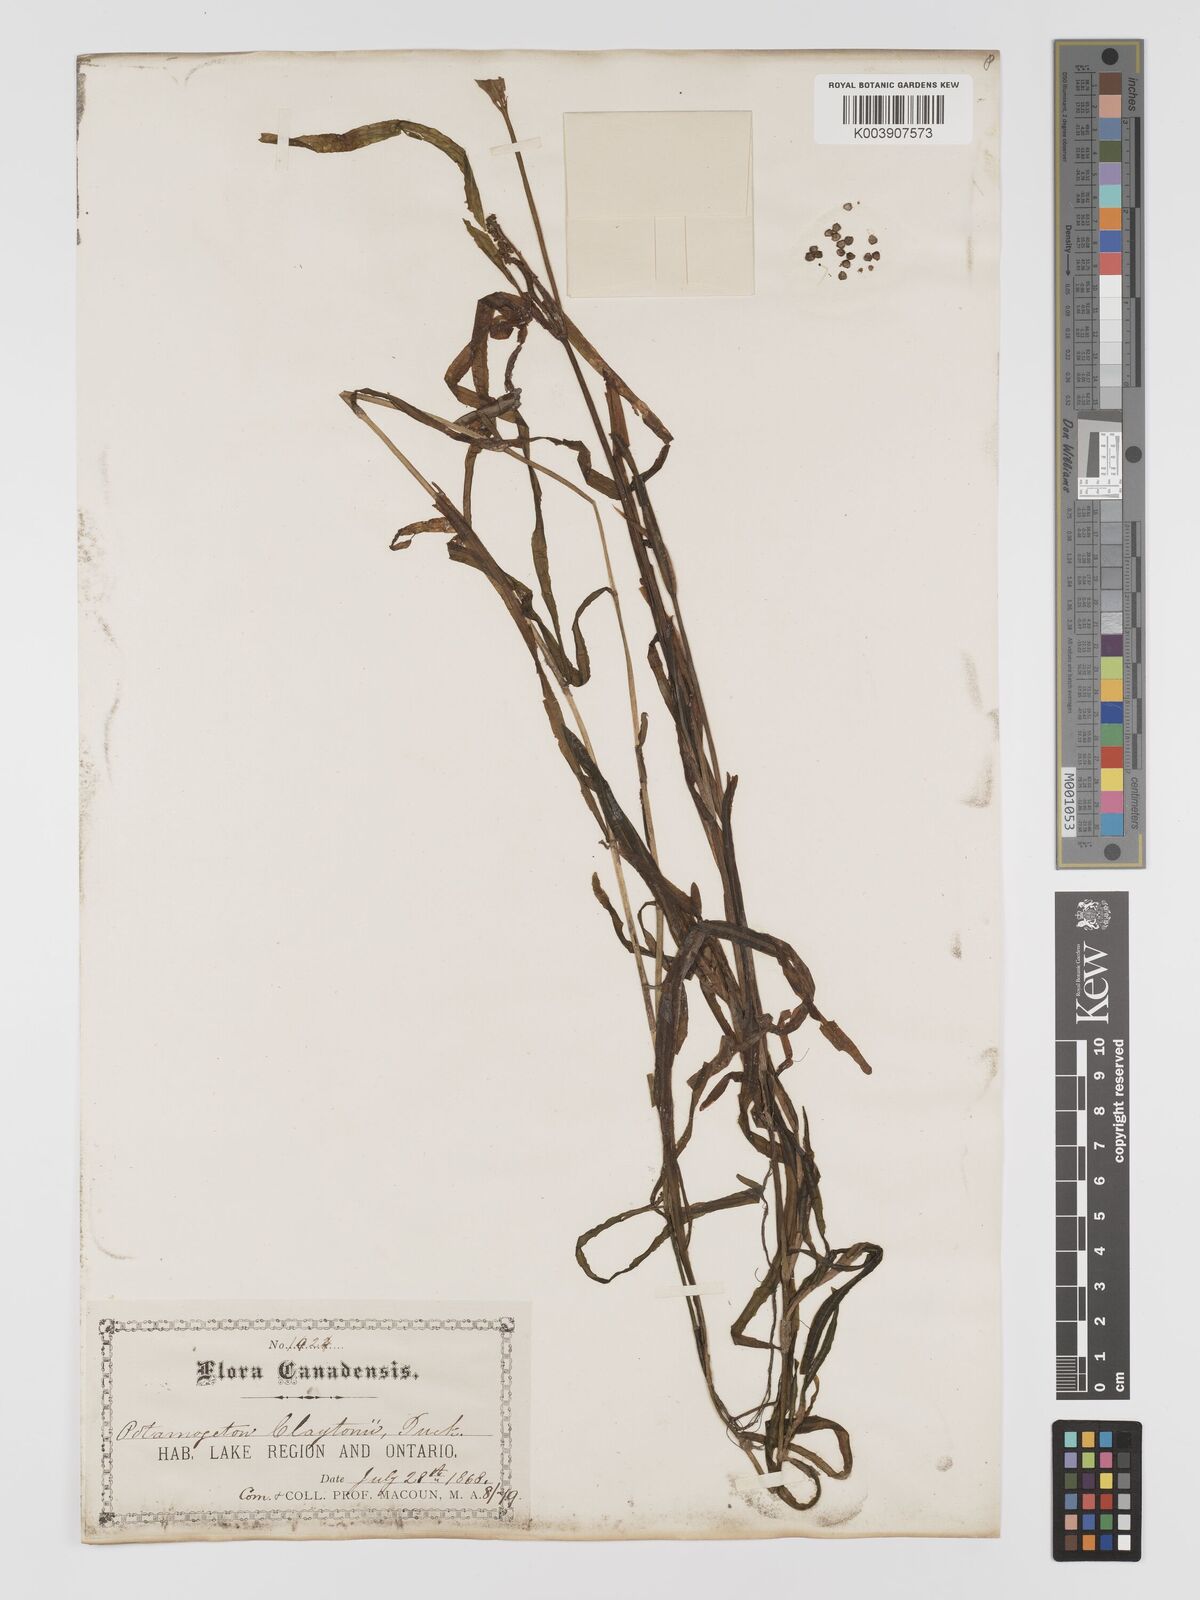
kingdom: Plantae
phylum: Tracheophyta
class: Liliopsida
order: Alismatales
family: Potamogetonaceae
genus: Potamogeton
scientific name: Potamogeton epihydrus
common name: American pondweed
